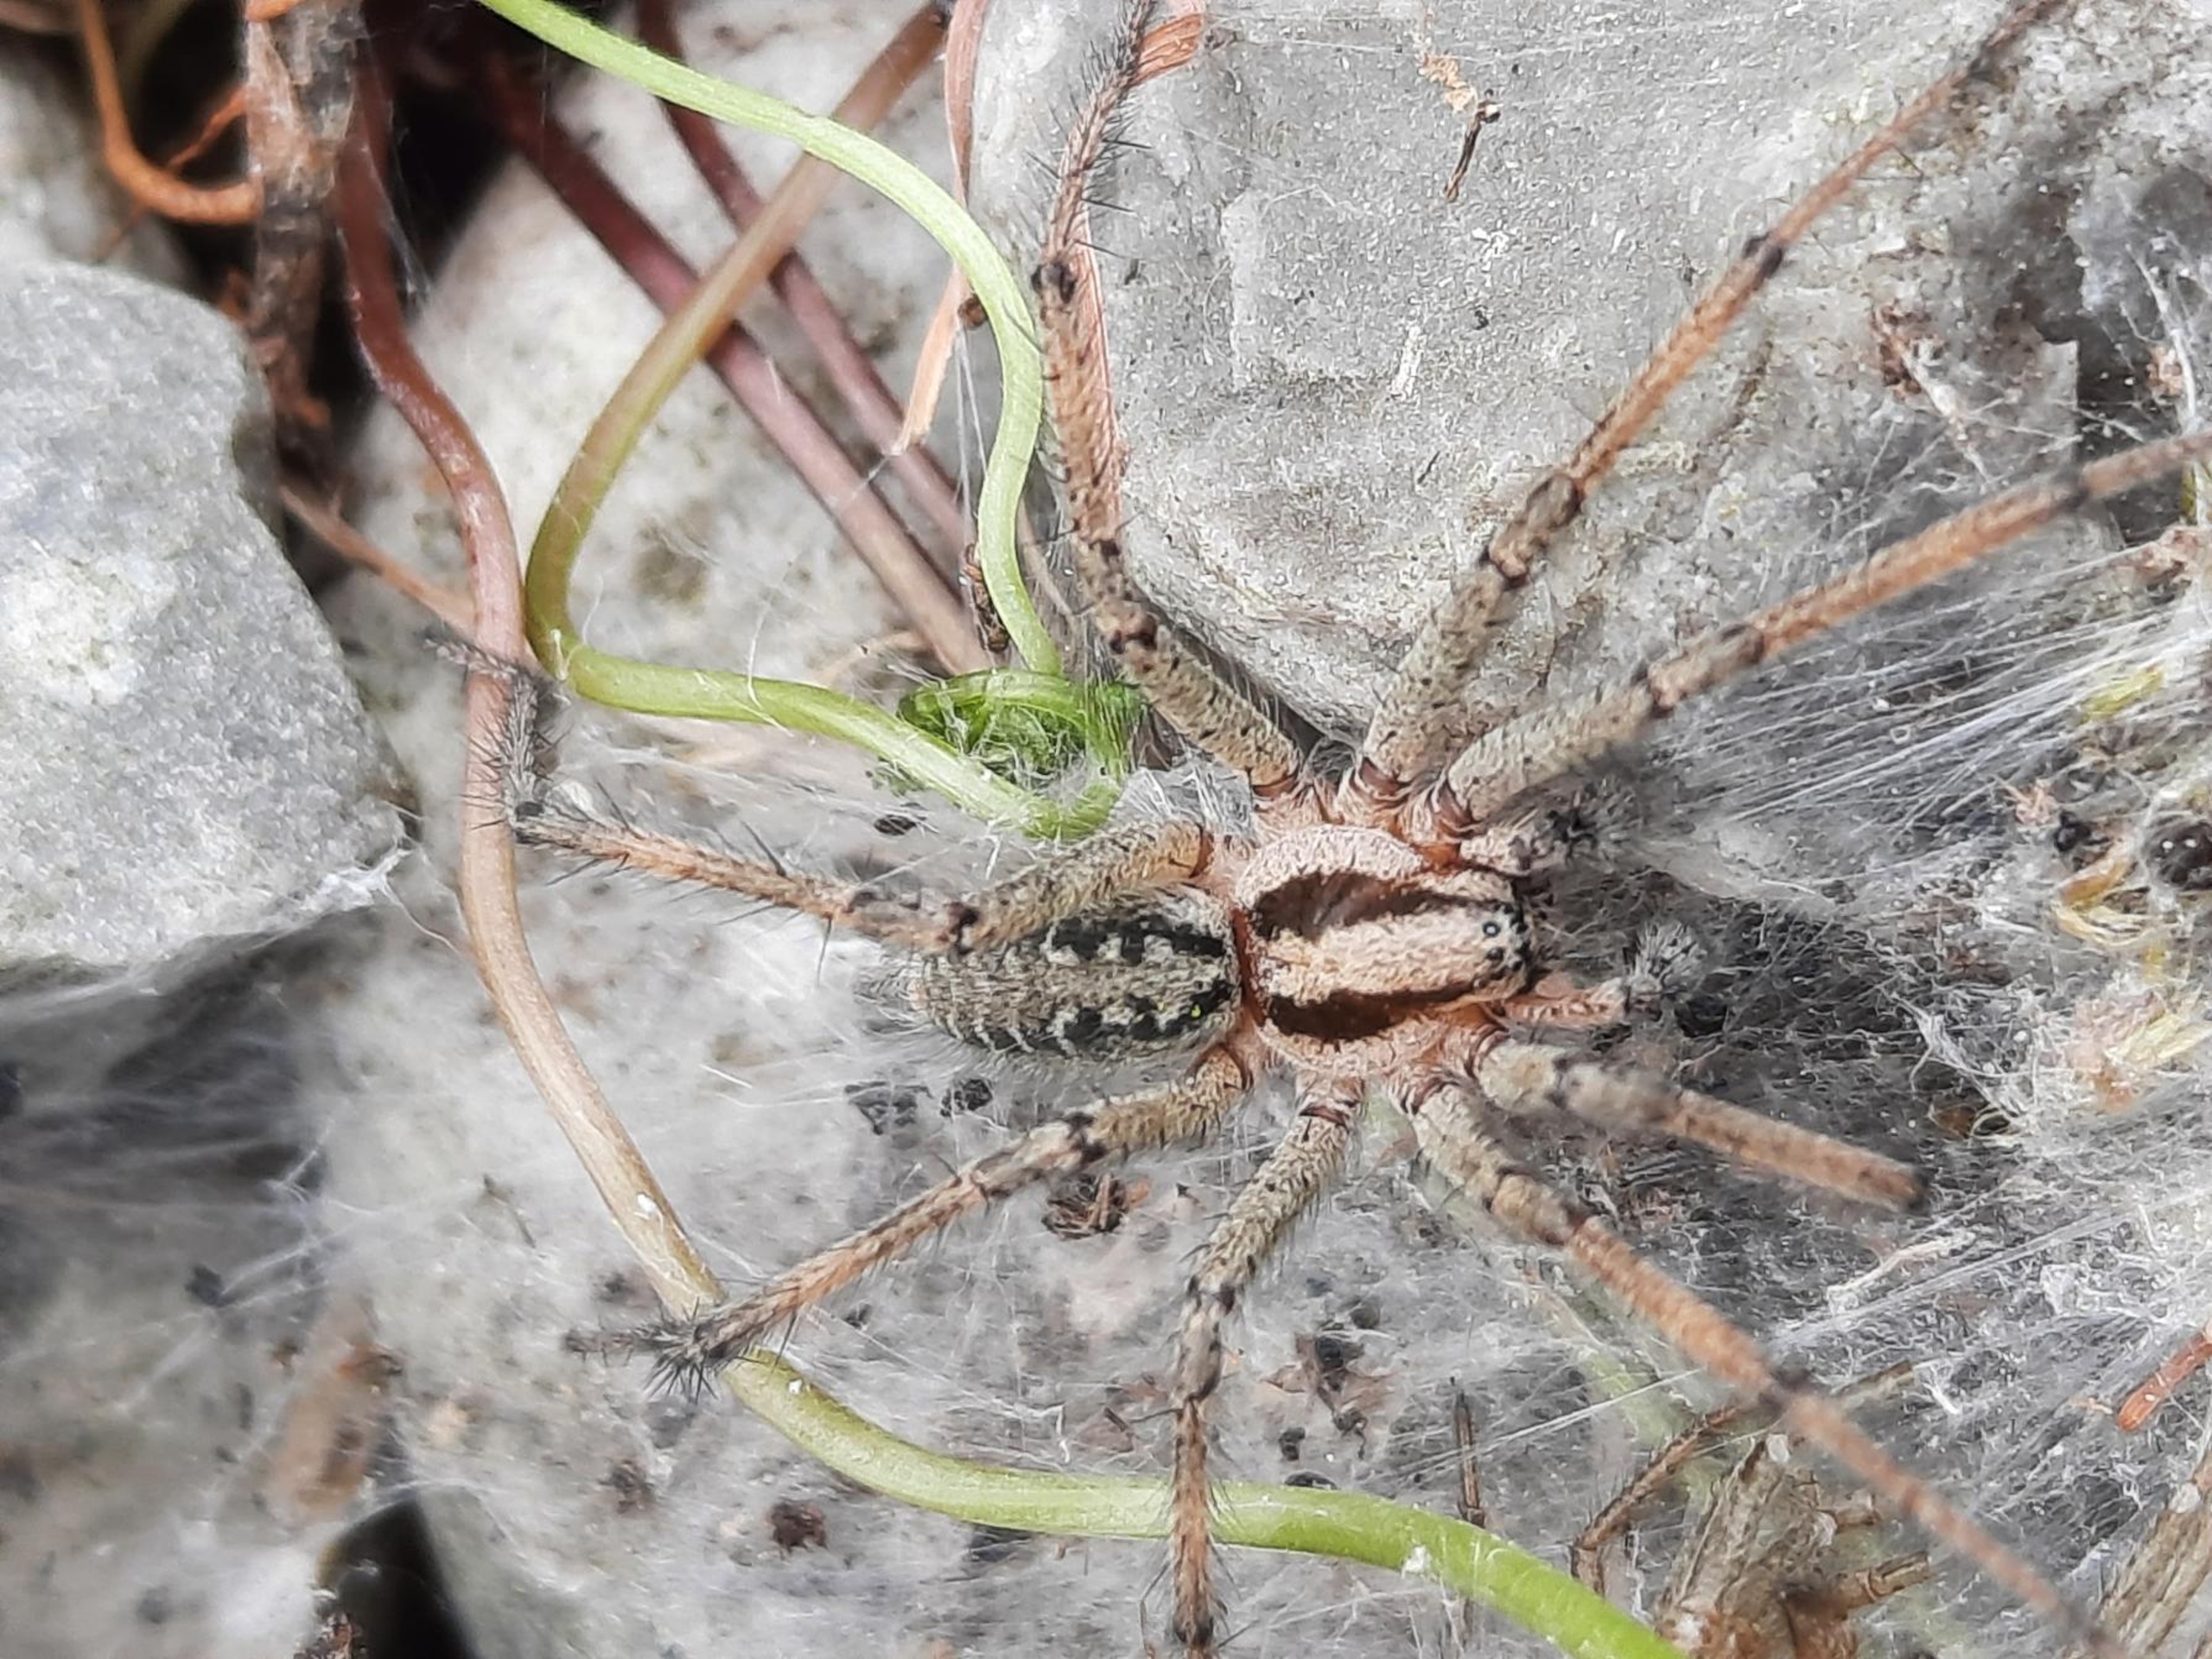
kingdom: Animalia
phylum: Arthropoda
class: Arachnida
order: Araneae
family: Agelenidae
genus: Agelena
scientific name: Agelena labyrinthica
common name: Labyrintedderkop
